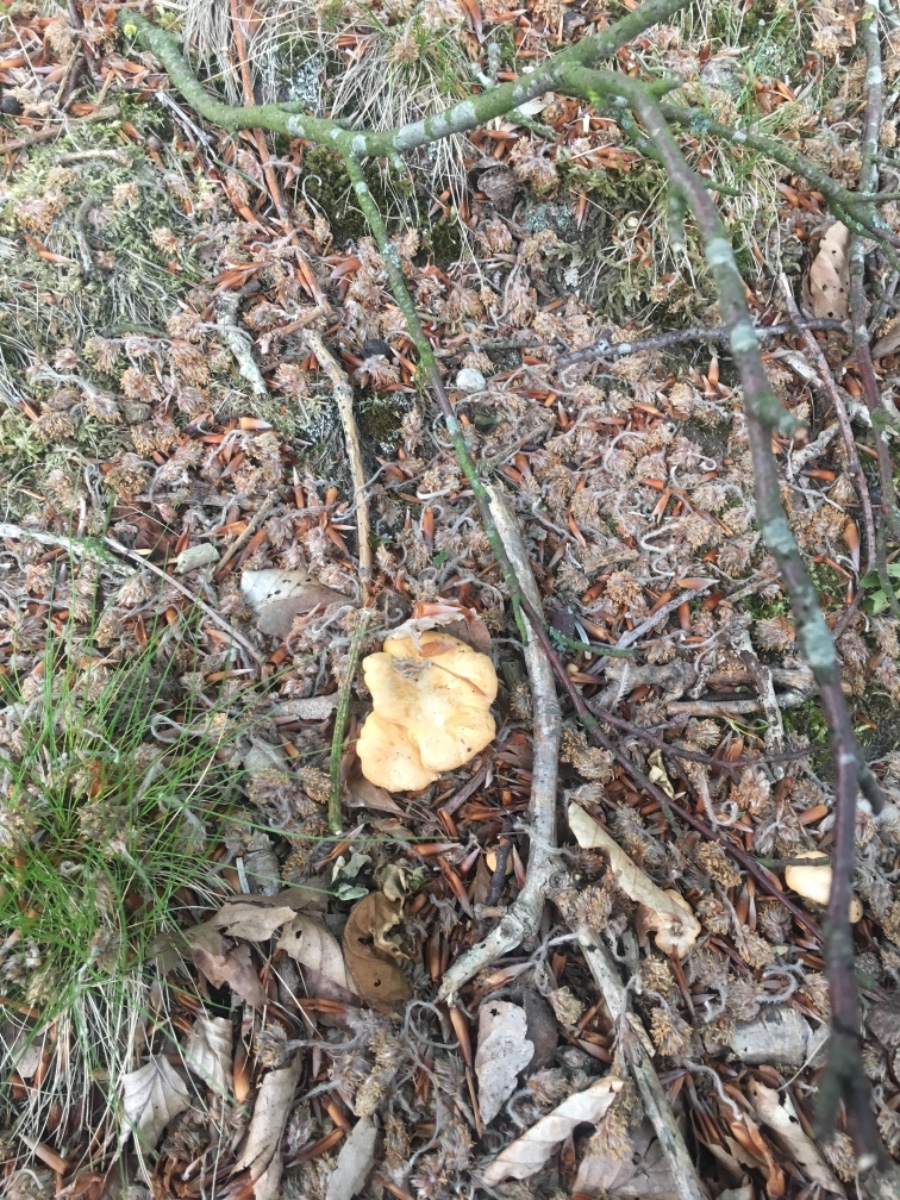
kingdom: Fungi
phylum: Basidiomycota
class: Agaricomycetes
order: Cantharellales
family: Hydnaceae
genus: Cantharellus
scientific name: Cantharellus amethysteus
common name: ametyst-kantarel
